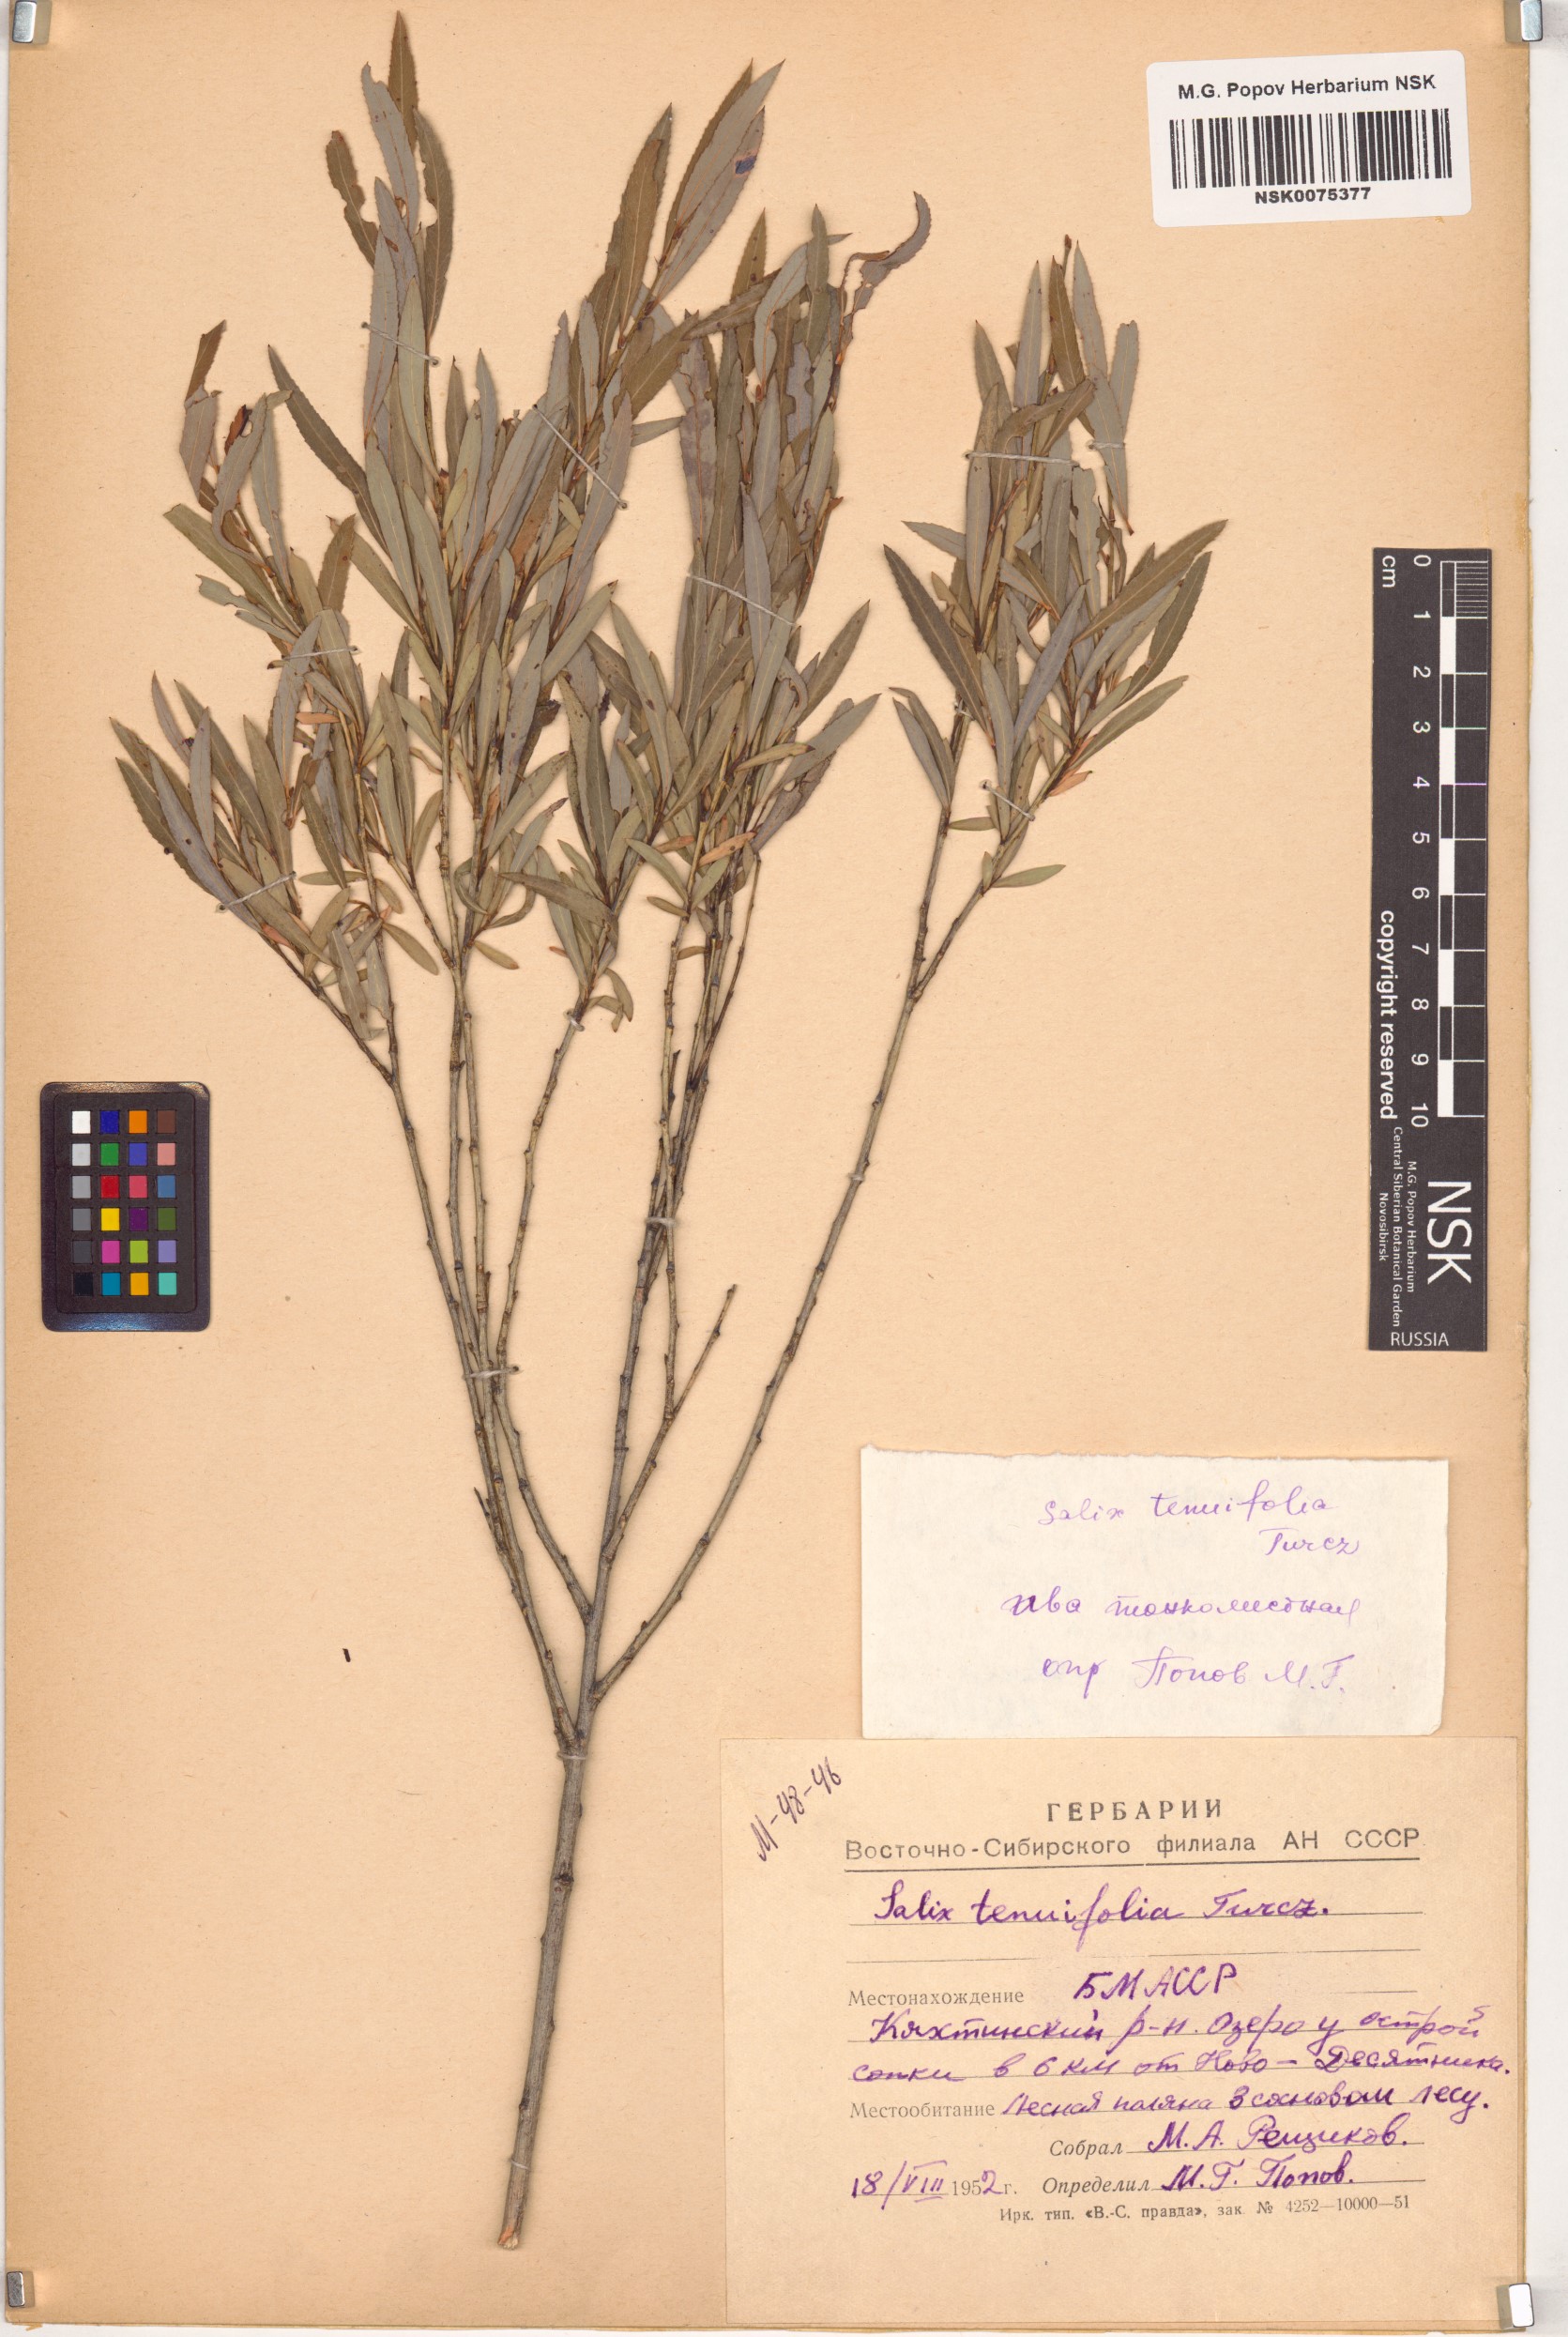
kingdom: Plantae
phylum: Tracheophyta
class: Magnoliopsida
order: Malpighiales
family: Salicaceae
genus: Salix
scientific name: Salix
